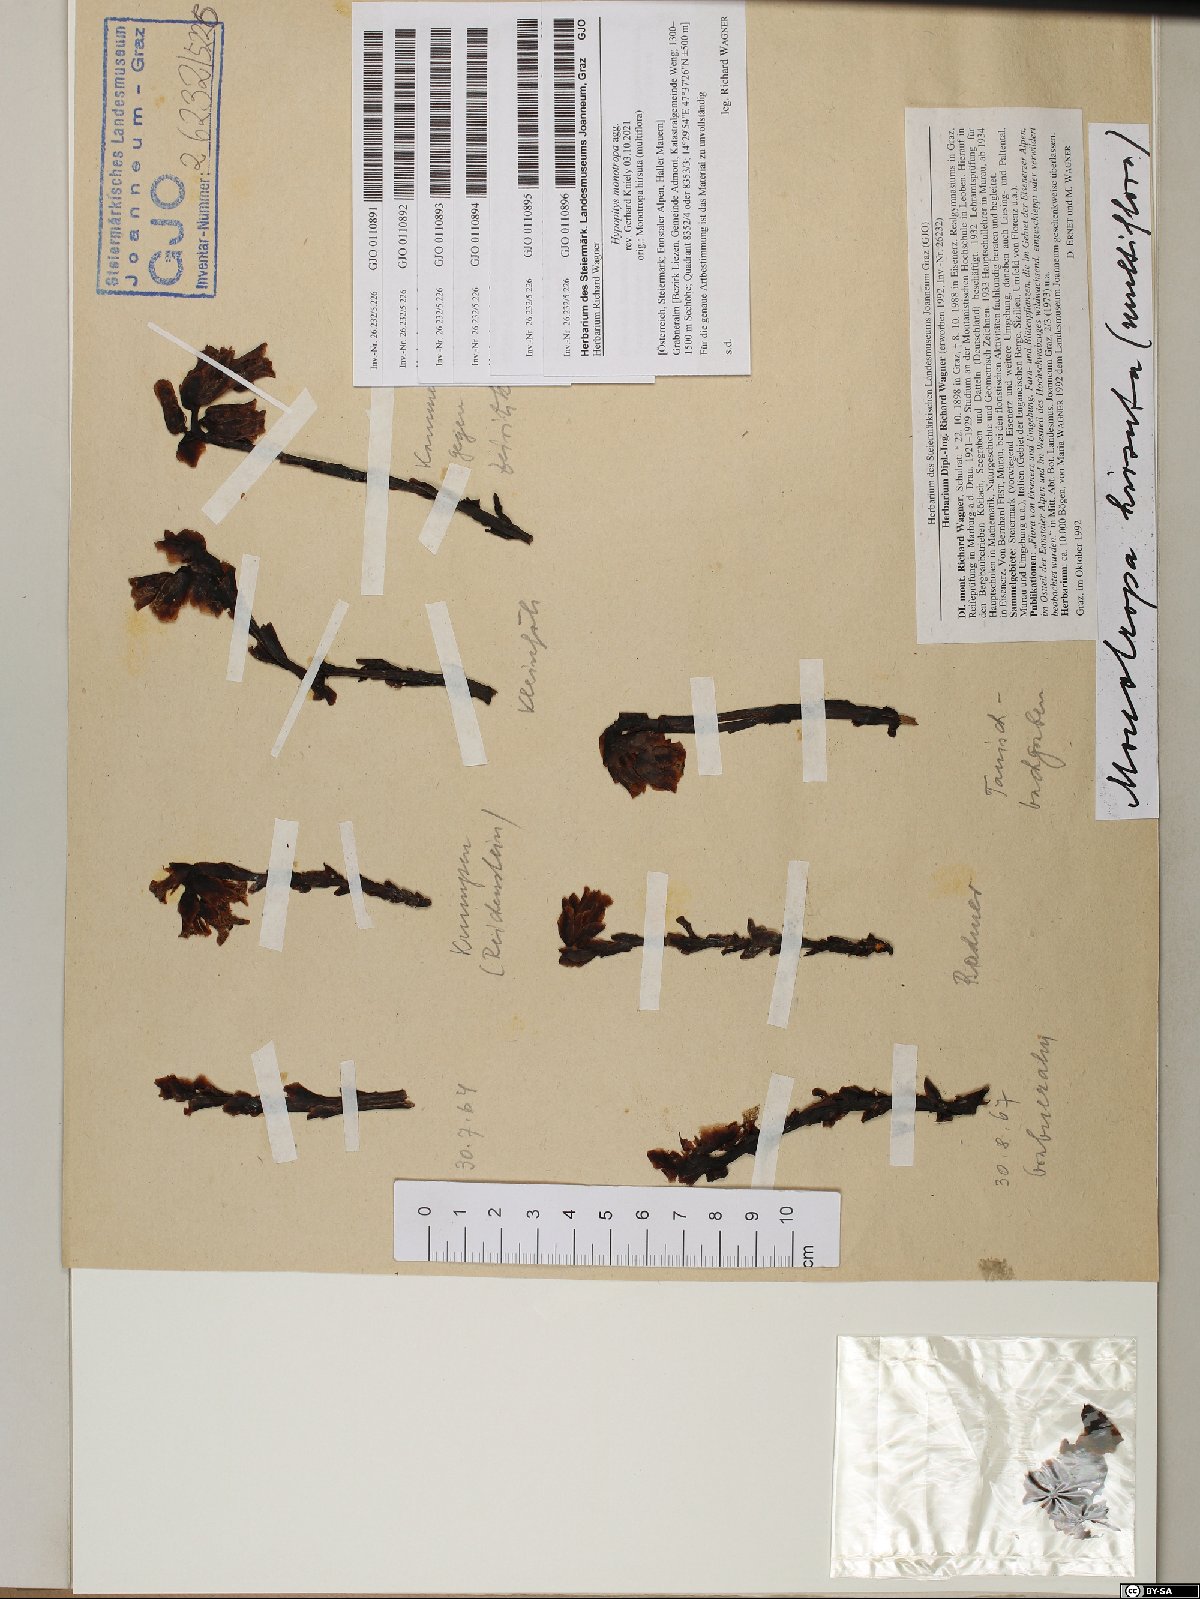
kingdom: Plantae
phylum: Tracheophyta
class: Magnoliopsida
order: Ericales
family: Ericaceae
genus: Hypopitys
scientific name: Hypopitys monotropa
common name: Yellow bird's-nest
